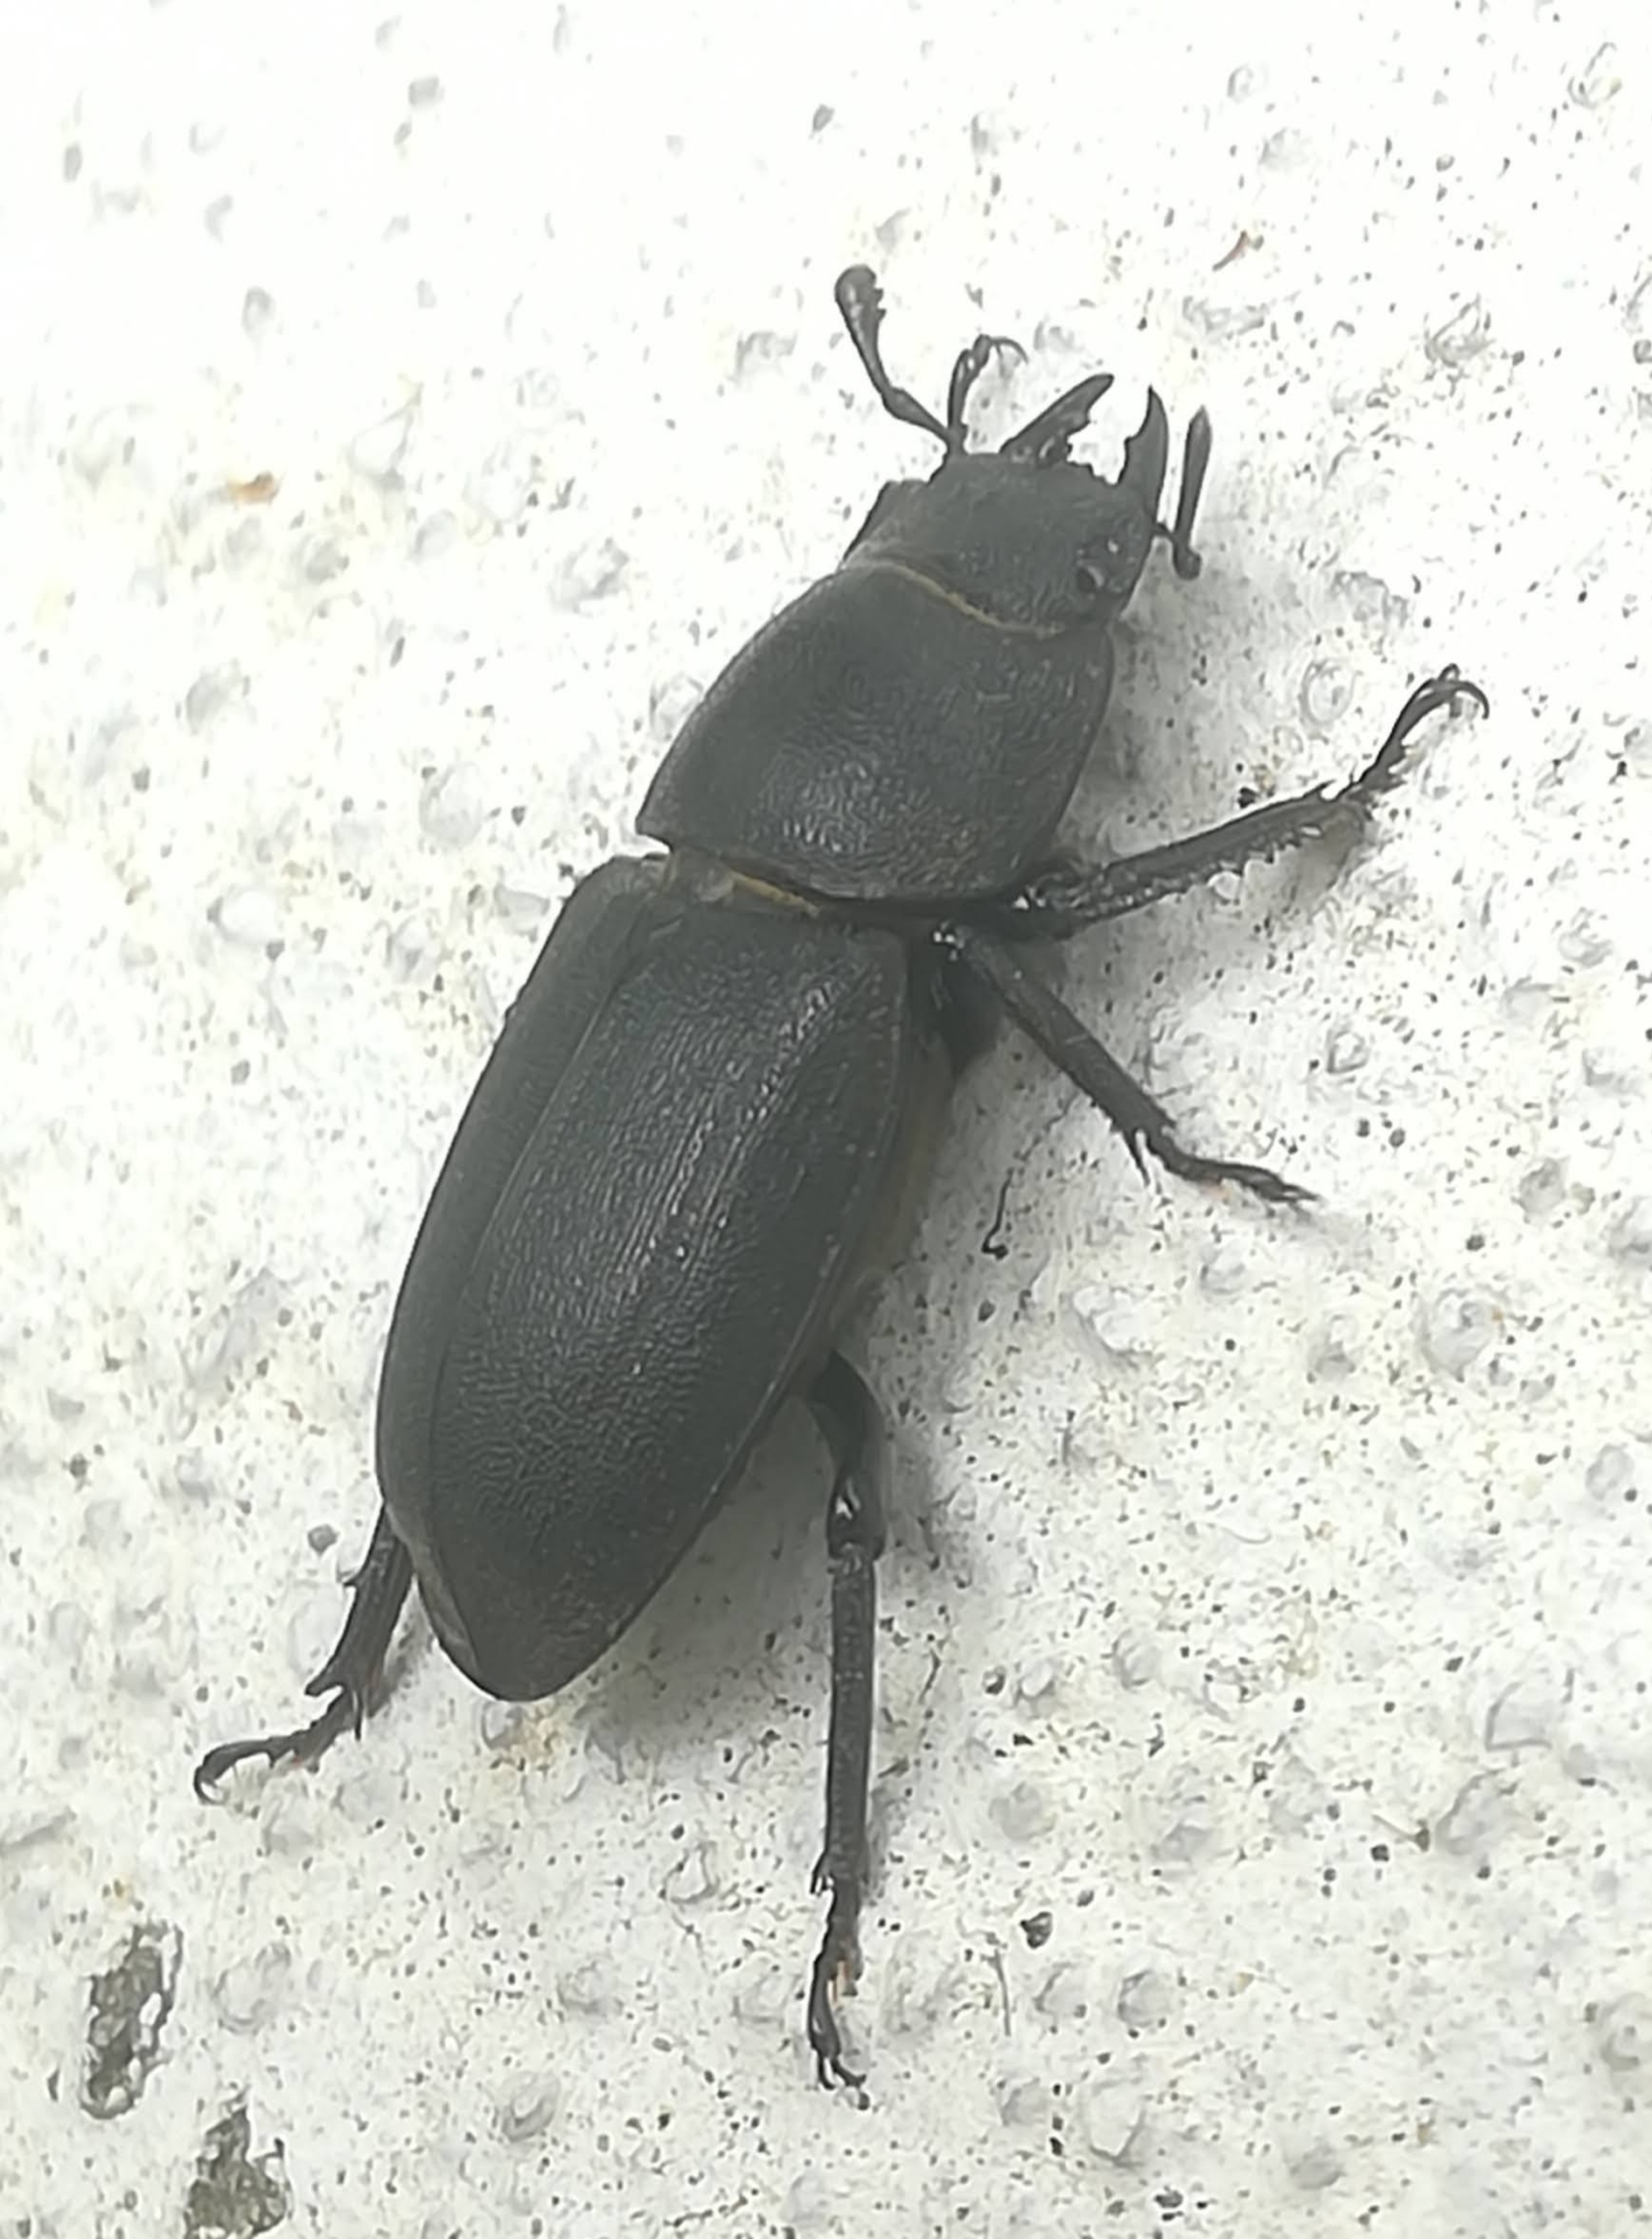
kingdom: Animalia
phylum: Arthropoda
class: Insecta
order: Coleoptera
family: Lucanidae
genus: Dorcus
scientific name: Dorcus parallelipipedus
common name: Bøghjort
